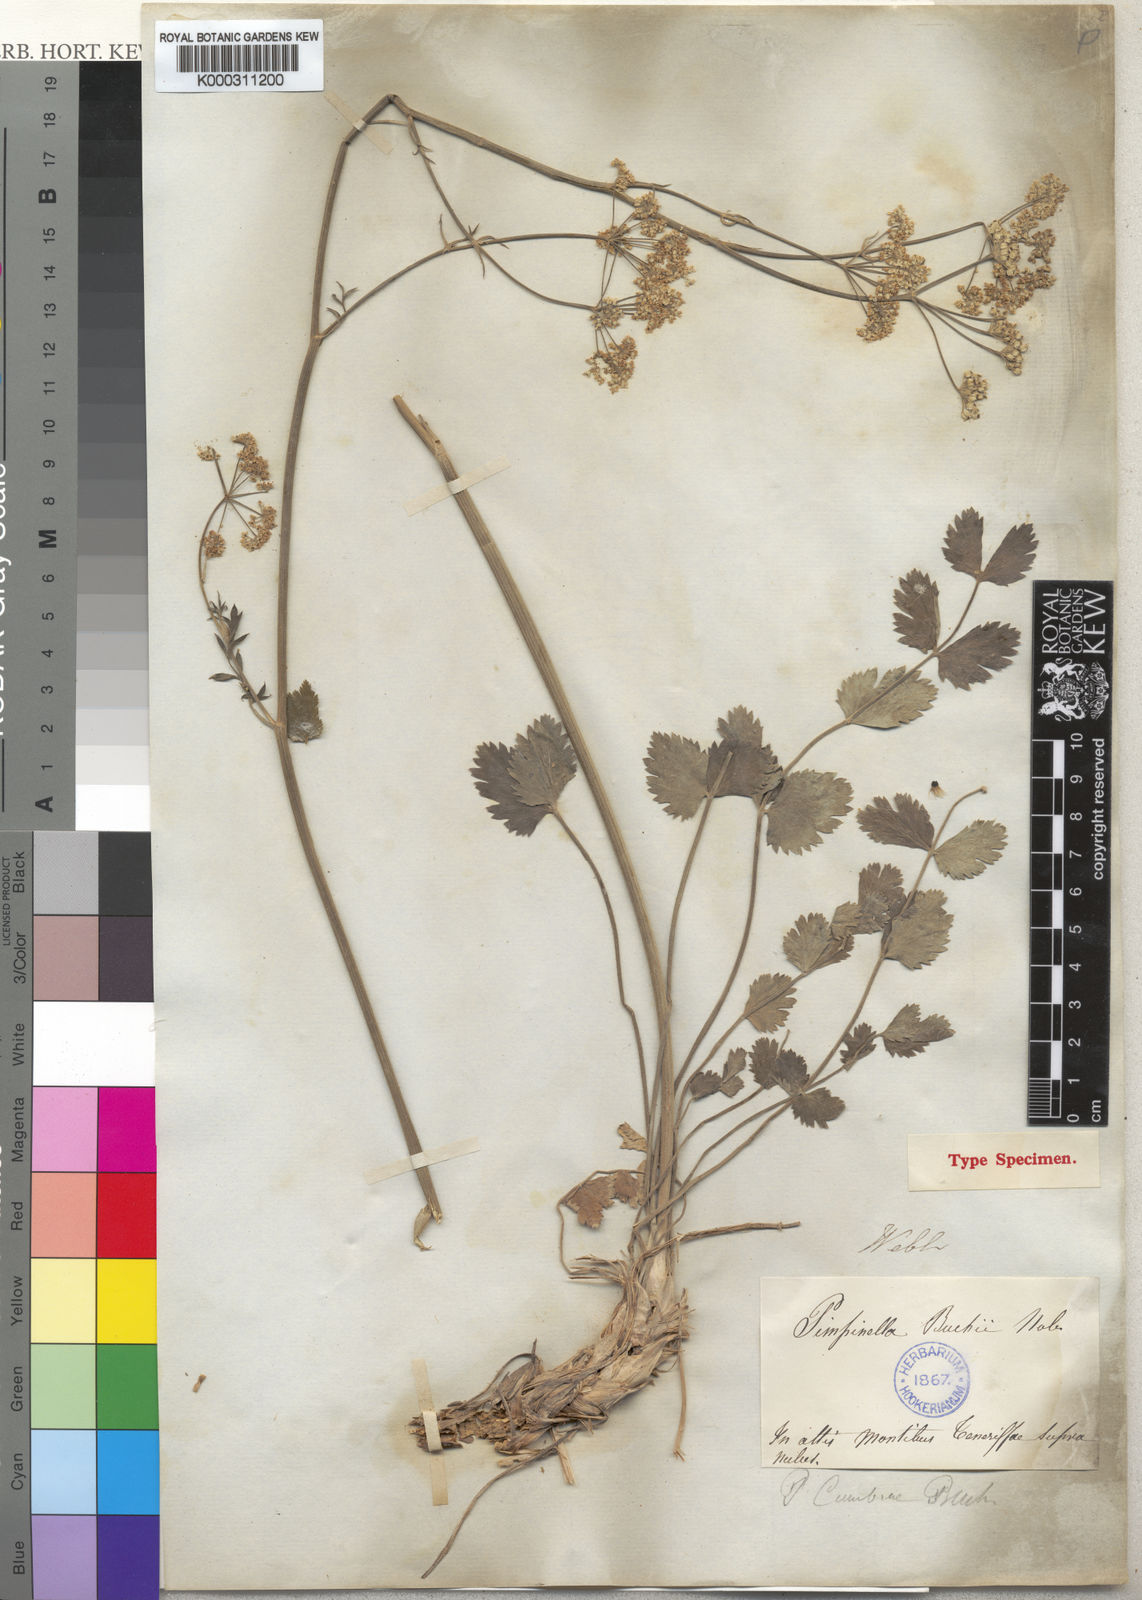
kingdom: Plantae
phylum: Tracheophyta
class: Magnoliopsida
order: Apiales
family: Apiaceae
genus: Pimpinella
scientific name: Pimpinella cumbrae
